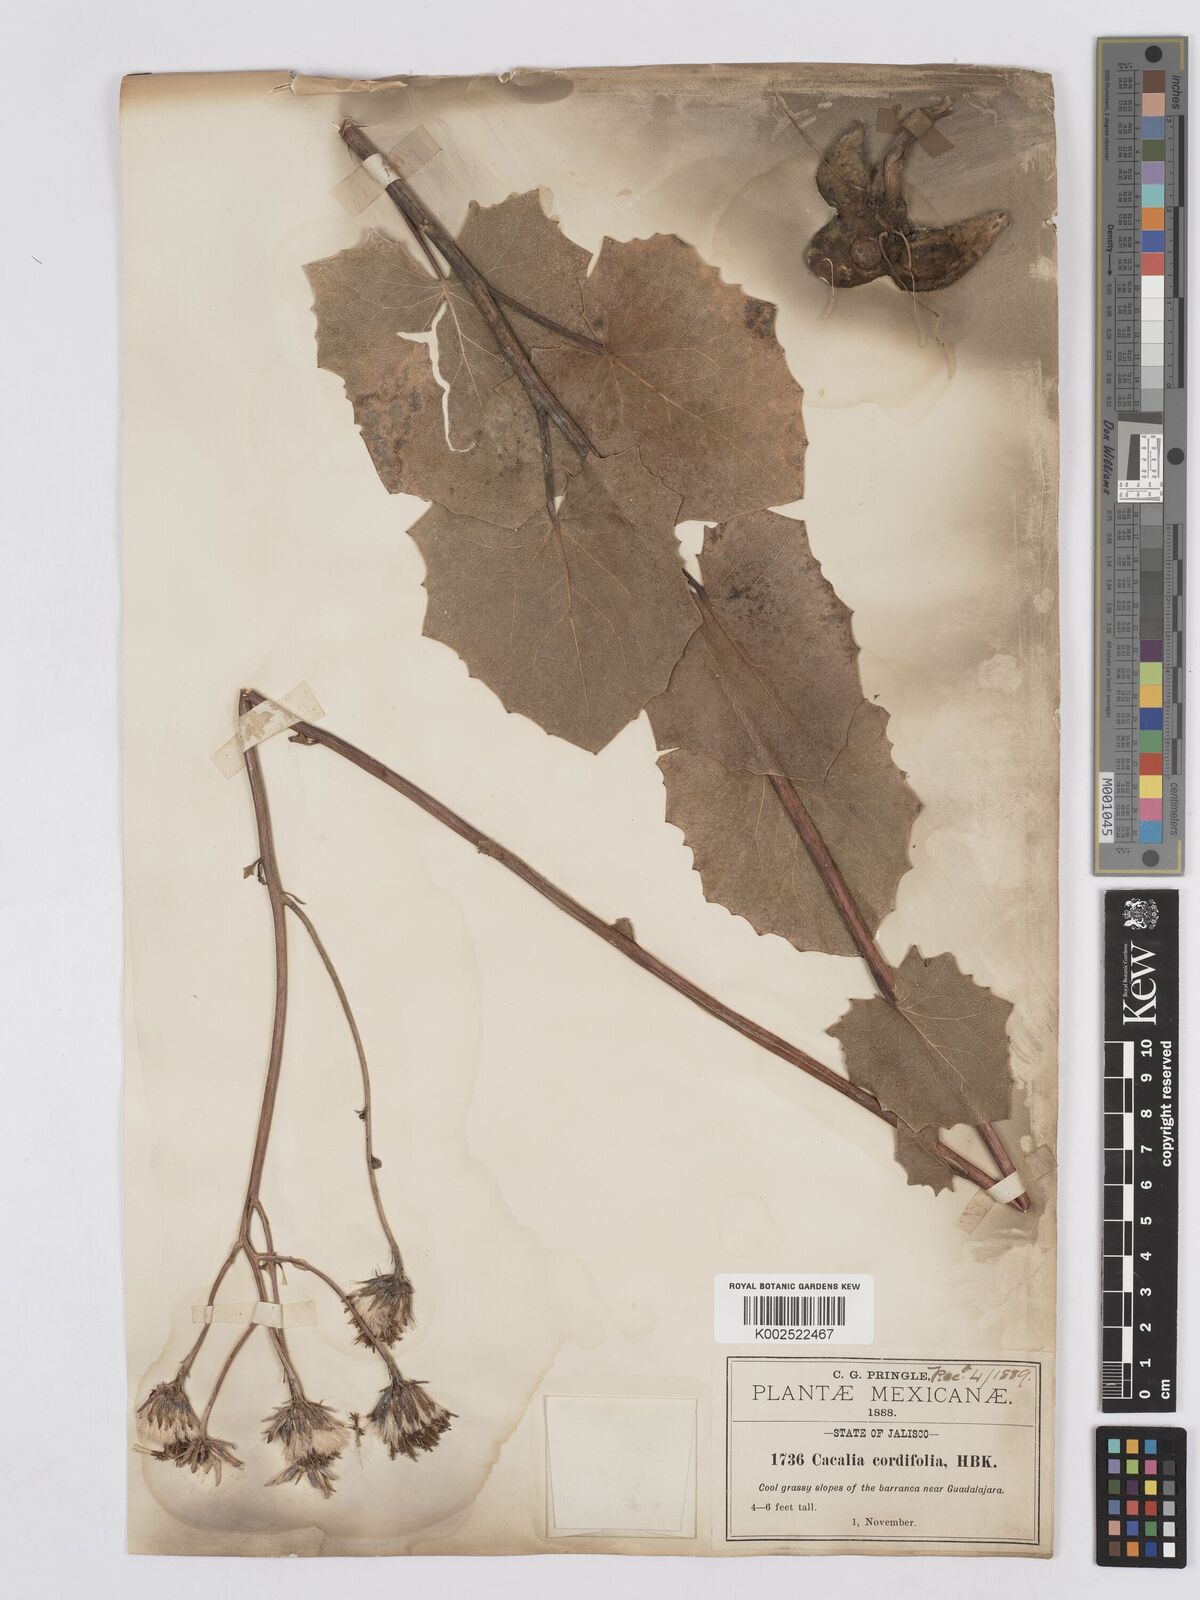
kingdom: Plantae
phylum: Tracheophyta
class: Magnoliopsida
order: Asterales
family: Asteraceae
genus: Roldana
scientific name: Roldana sessilifolia
